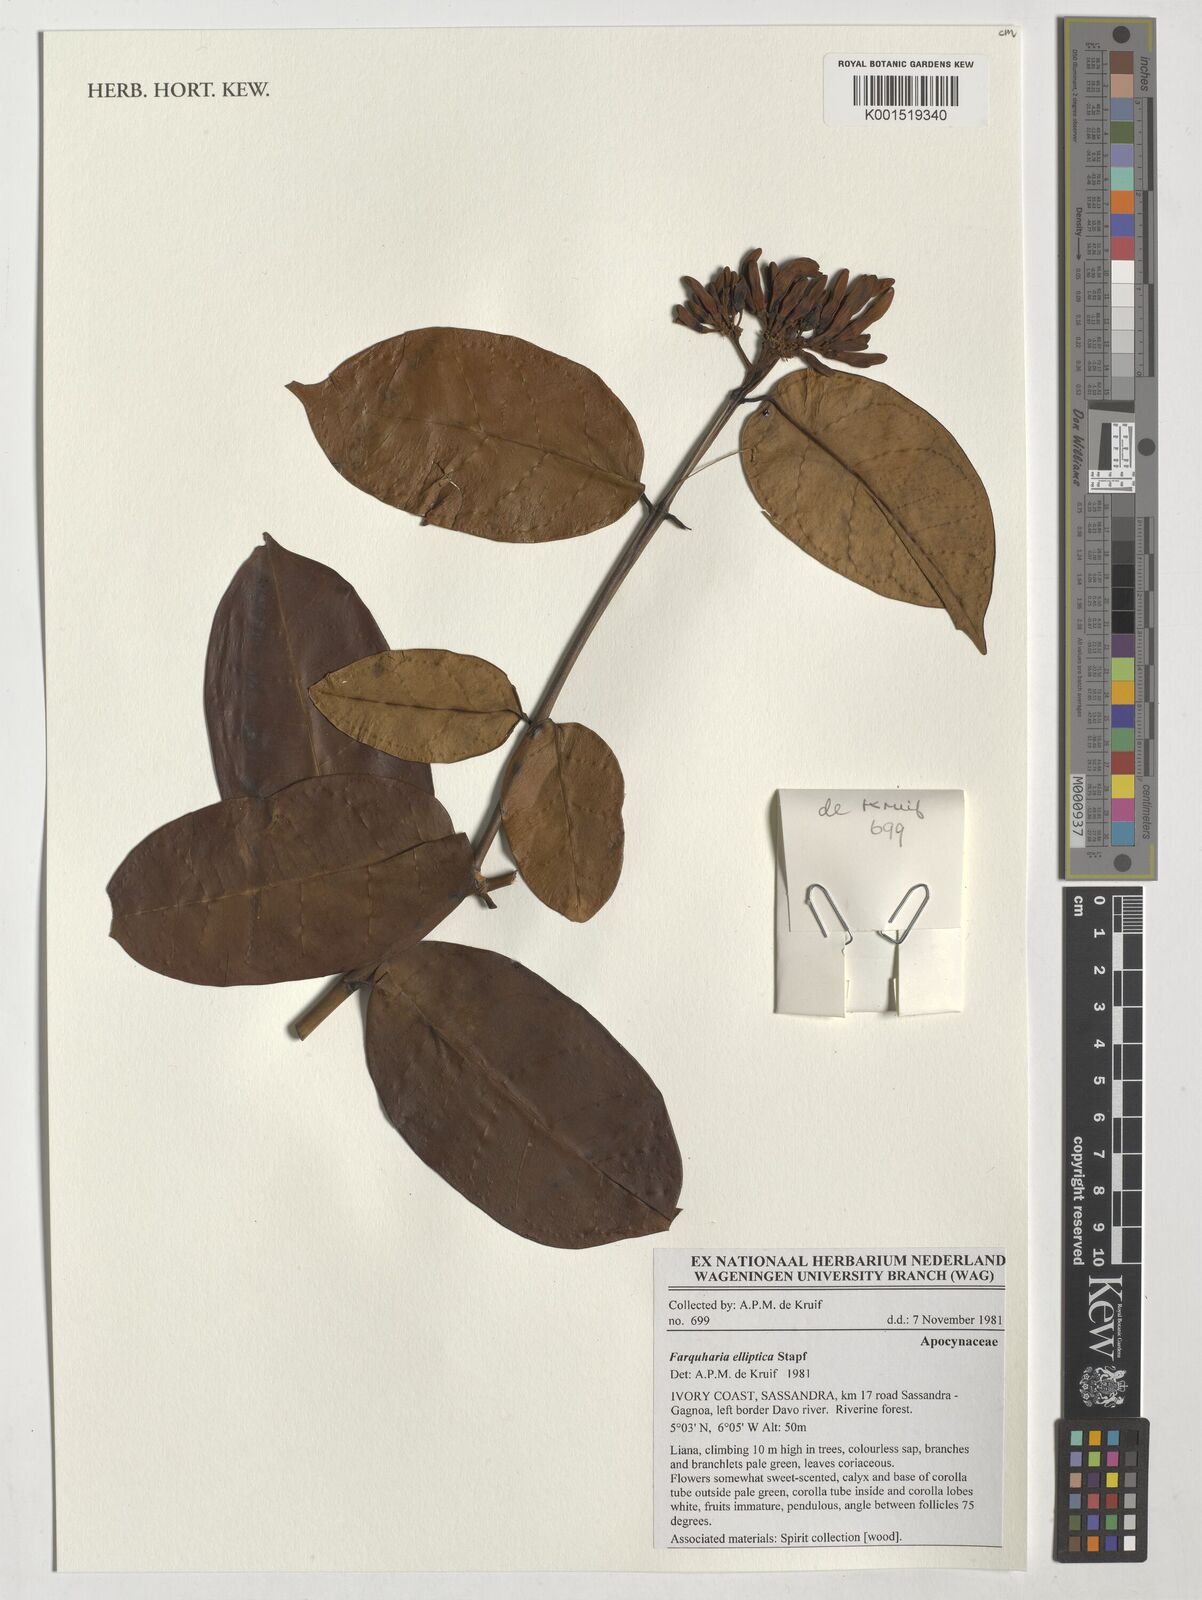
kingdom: Plantae
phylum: Tracheophyta
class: Magnoliopsida
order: Gentianales
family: Apocynaceae
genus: Farquharia
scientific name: Farquharia elliptica
